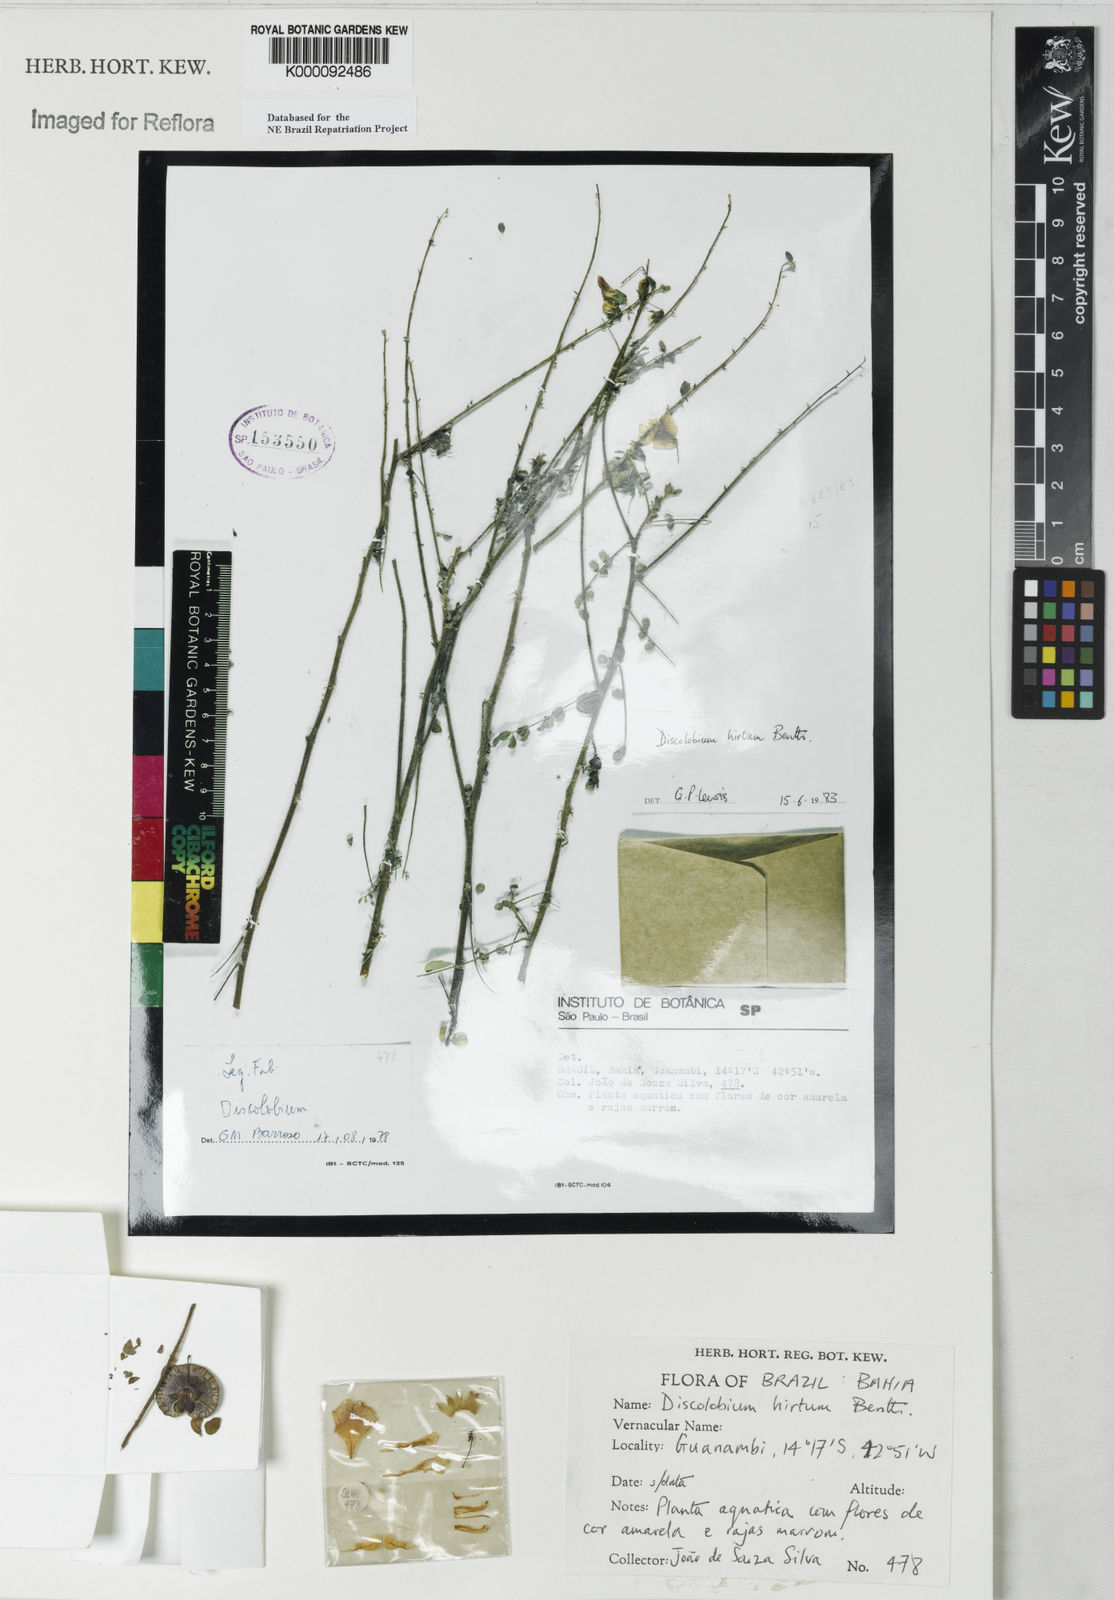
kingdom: Plantae
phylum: Tracheophyta
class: Magnoliopsida
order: Fabales
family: Fabaceae
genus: Discolobium
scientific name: Discolobium hirtum
